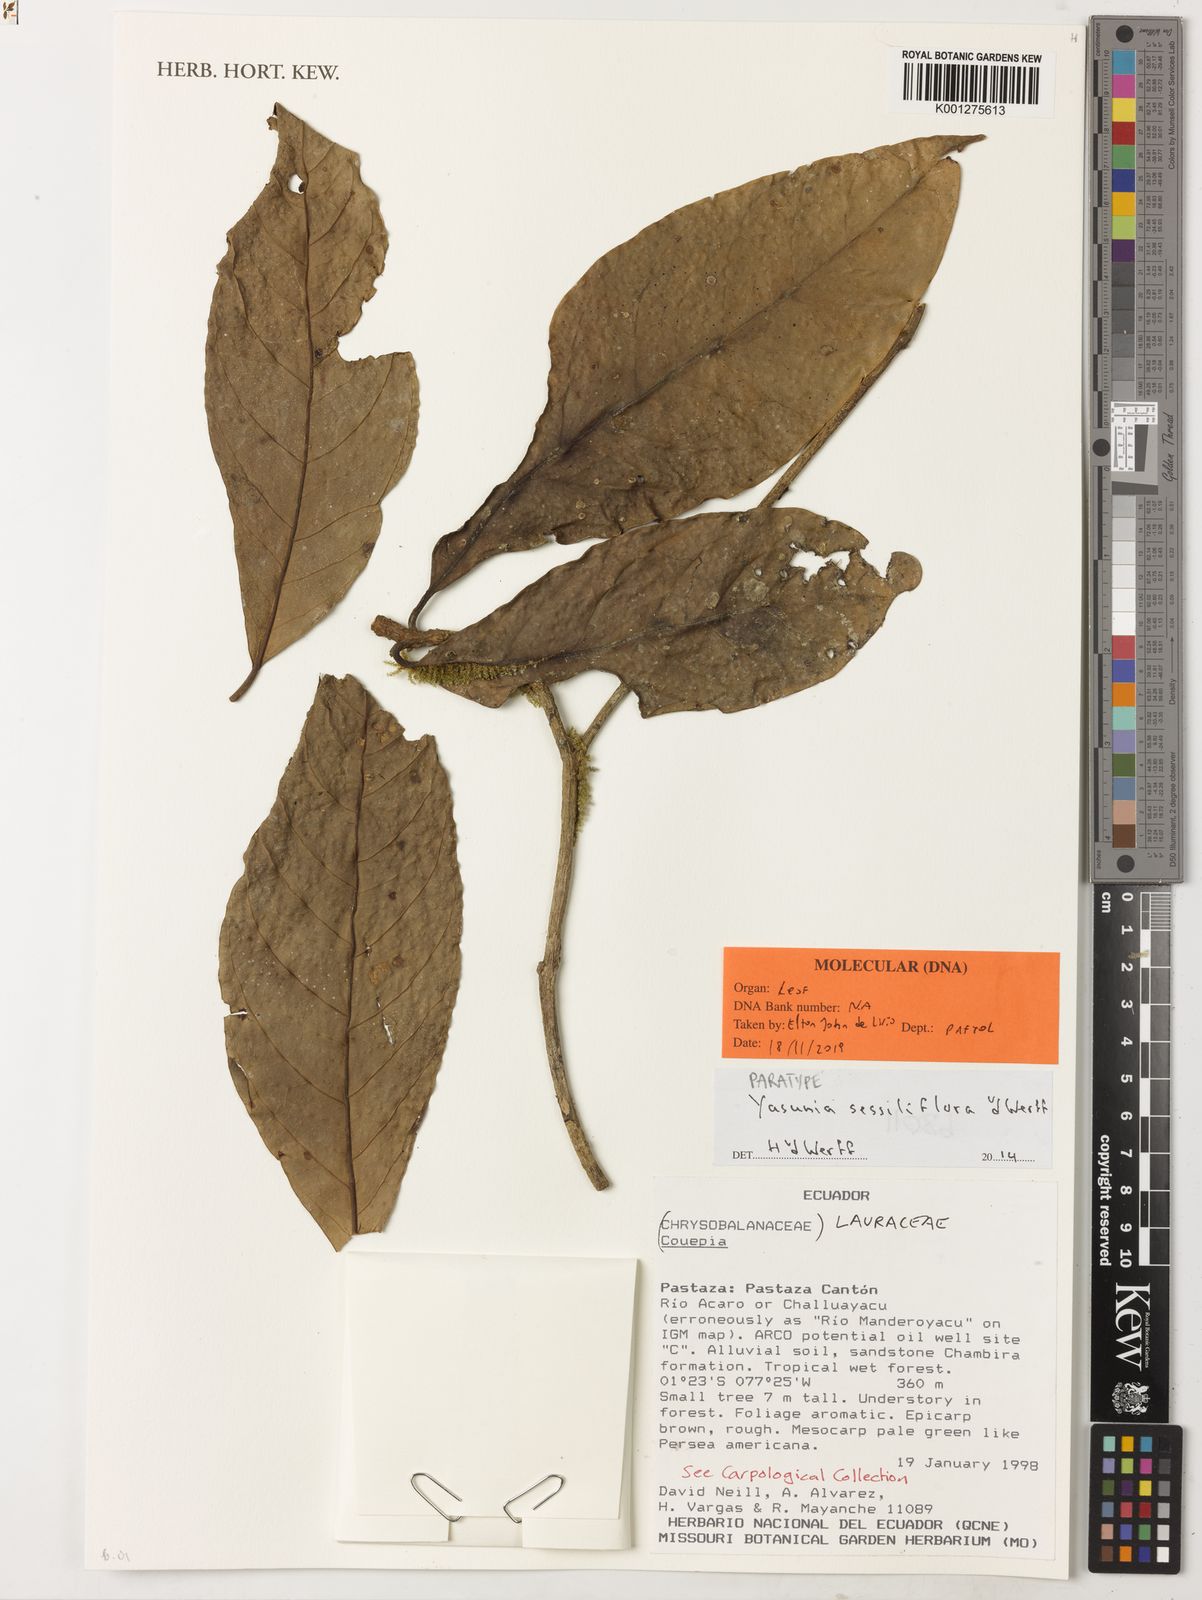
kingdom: Plantae
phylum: Tracheophyta
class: Magnoliopsida
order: Laurales
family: Lauraceae
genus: Yasunia
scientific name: Yasunia sessiliflora
